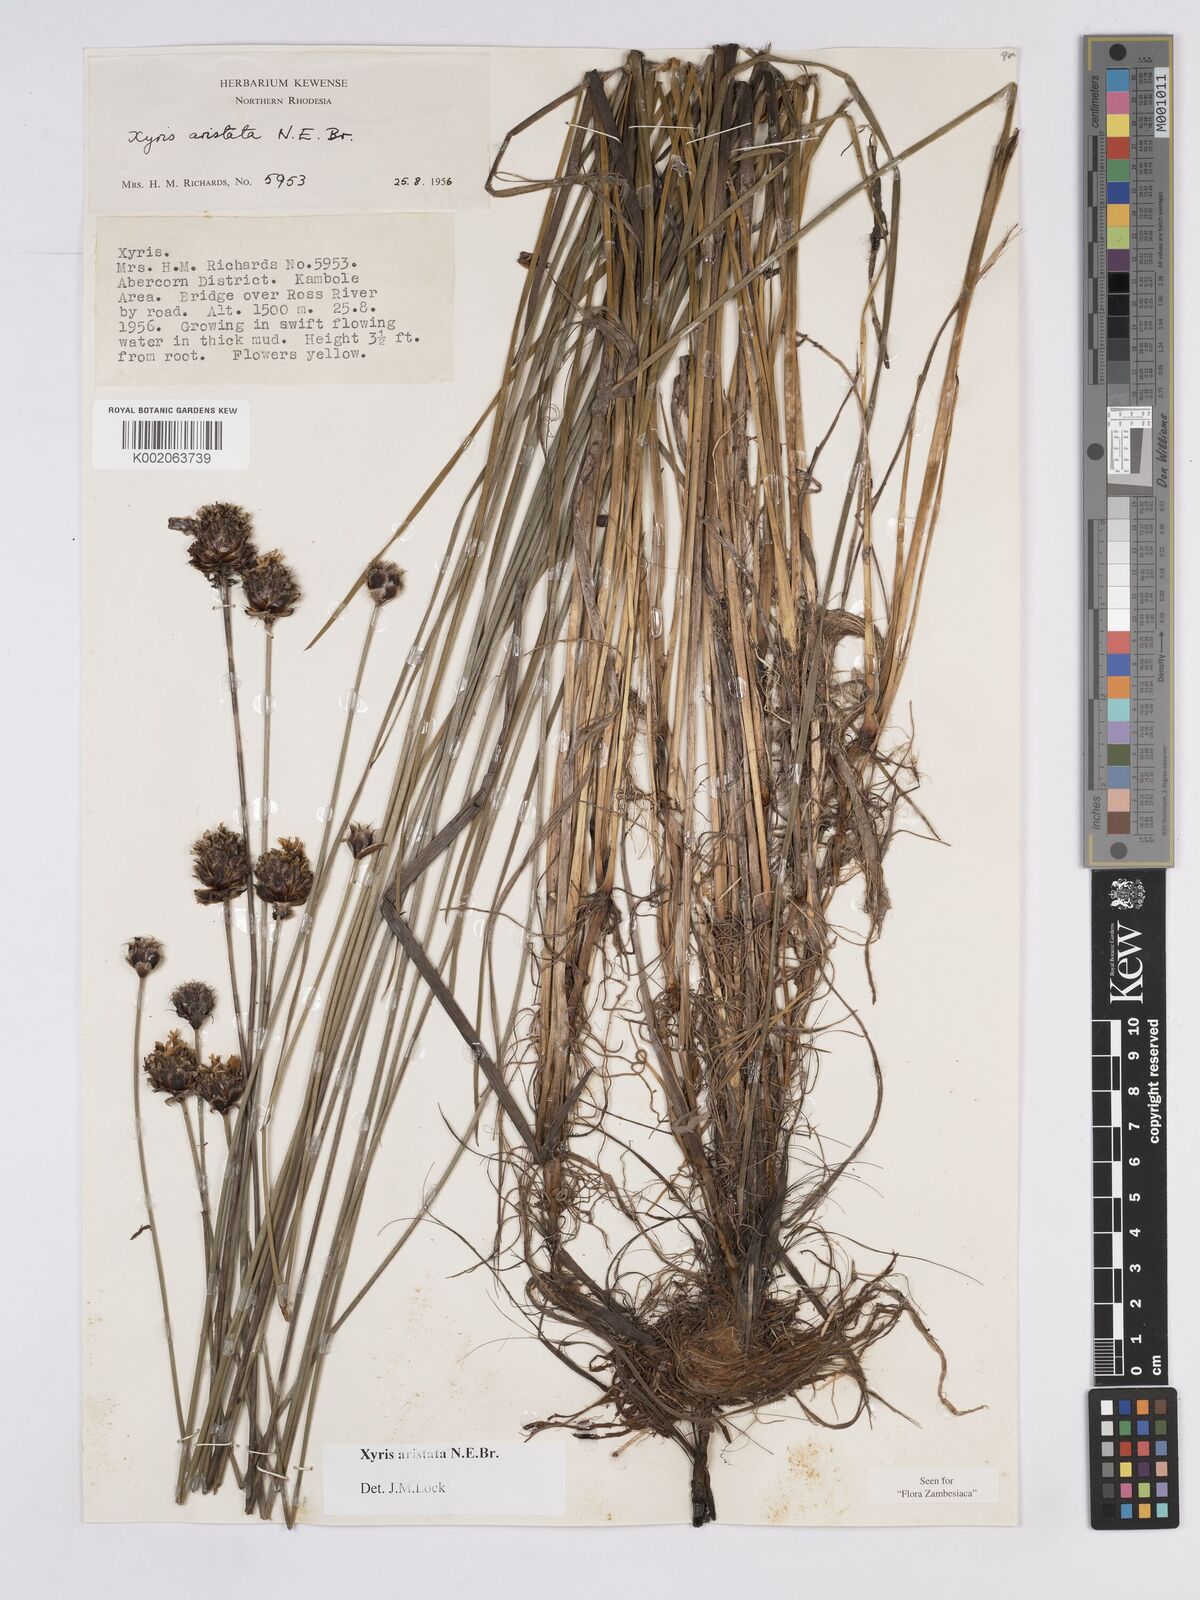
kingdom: Plantae
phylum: Tracheophyta
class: Liliopsida
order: Poales
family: Xyridaceae
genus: Xyris
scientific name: Xyris aristata
